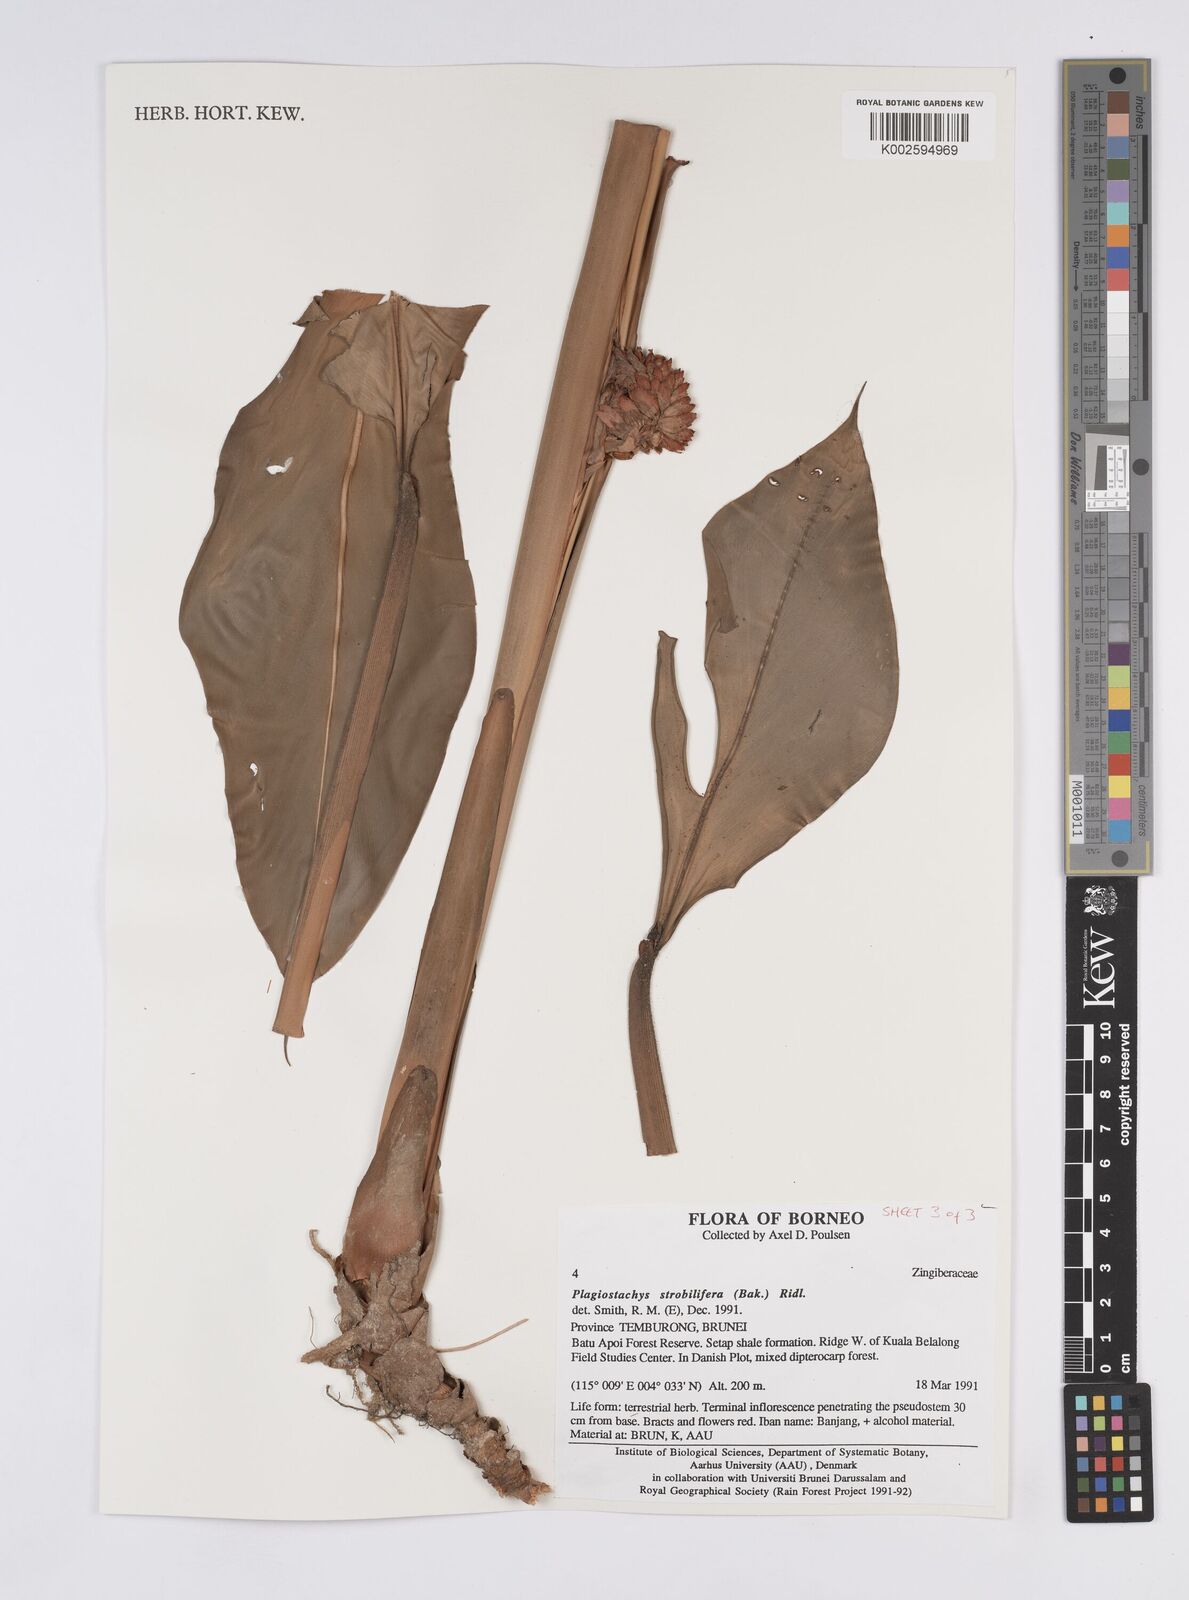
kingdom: Plantae
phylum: Tracheophyta
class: Liliopsida
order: Zingiberales
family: Zingiberaceae
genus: Plagiostachys
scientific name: Plagiostachys strobilifera
